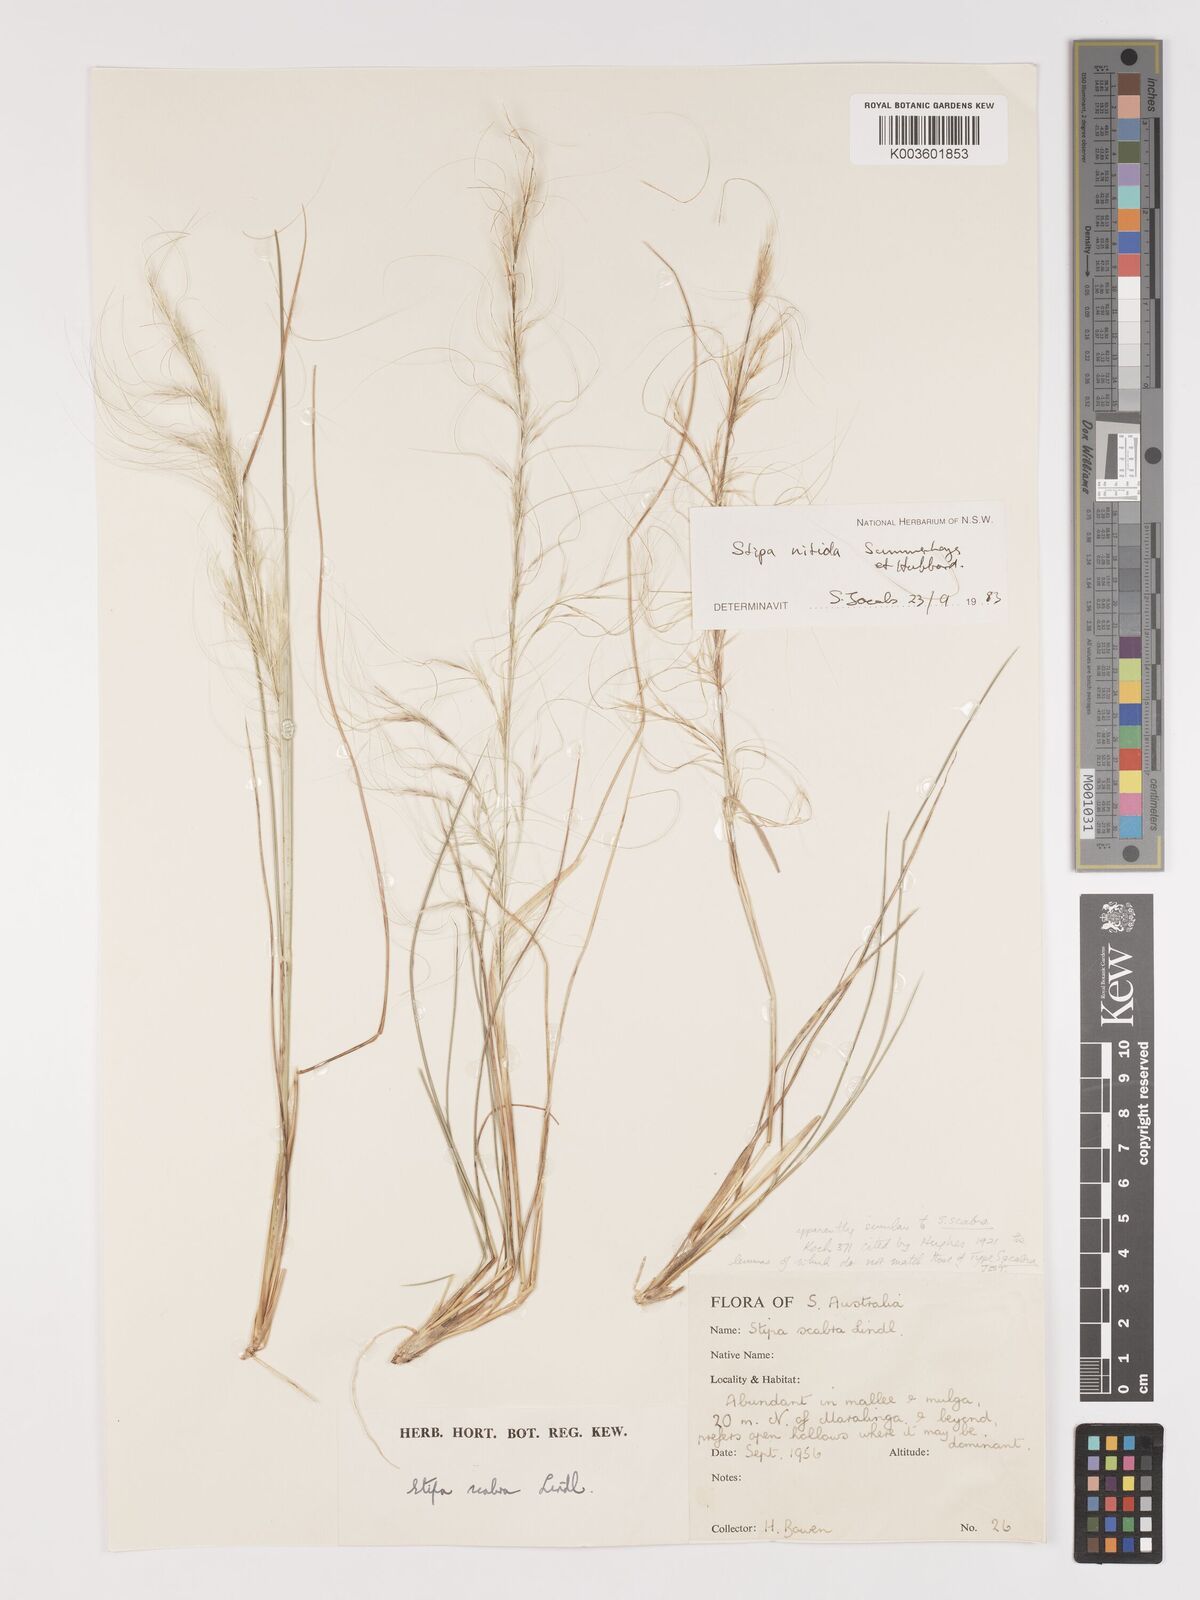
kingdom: Plantae
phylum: Tracheophyta
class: Liliopsida
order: Poales
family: Poaceae
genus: Austrostipa
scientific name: Austrostipa nitida
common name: Balcarra grass
